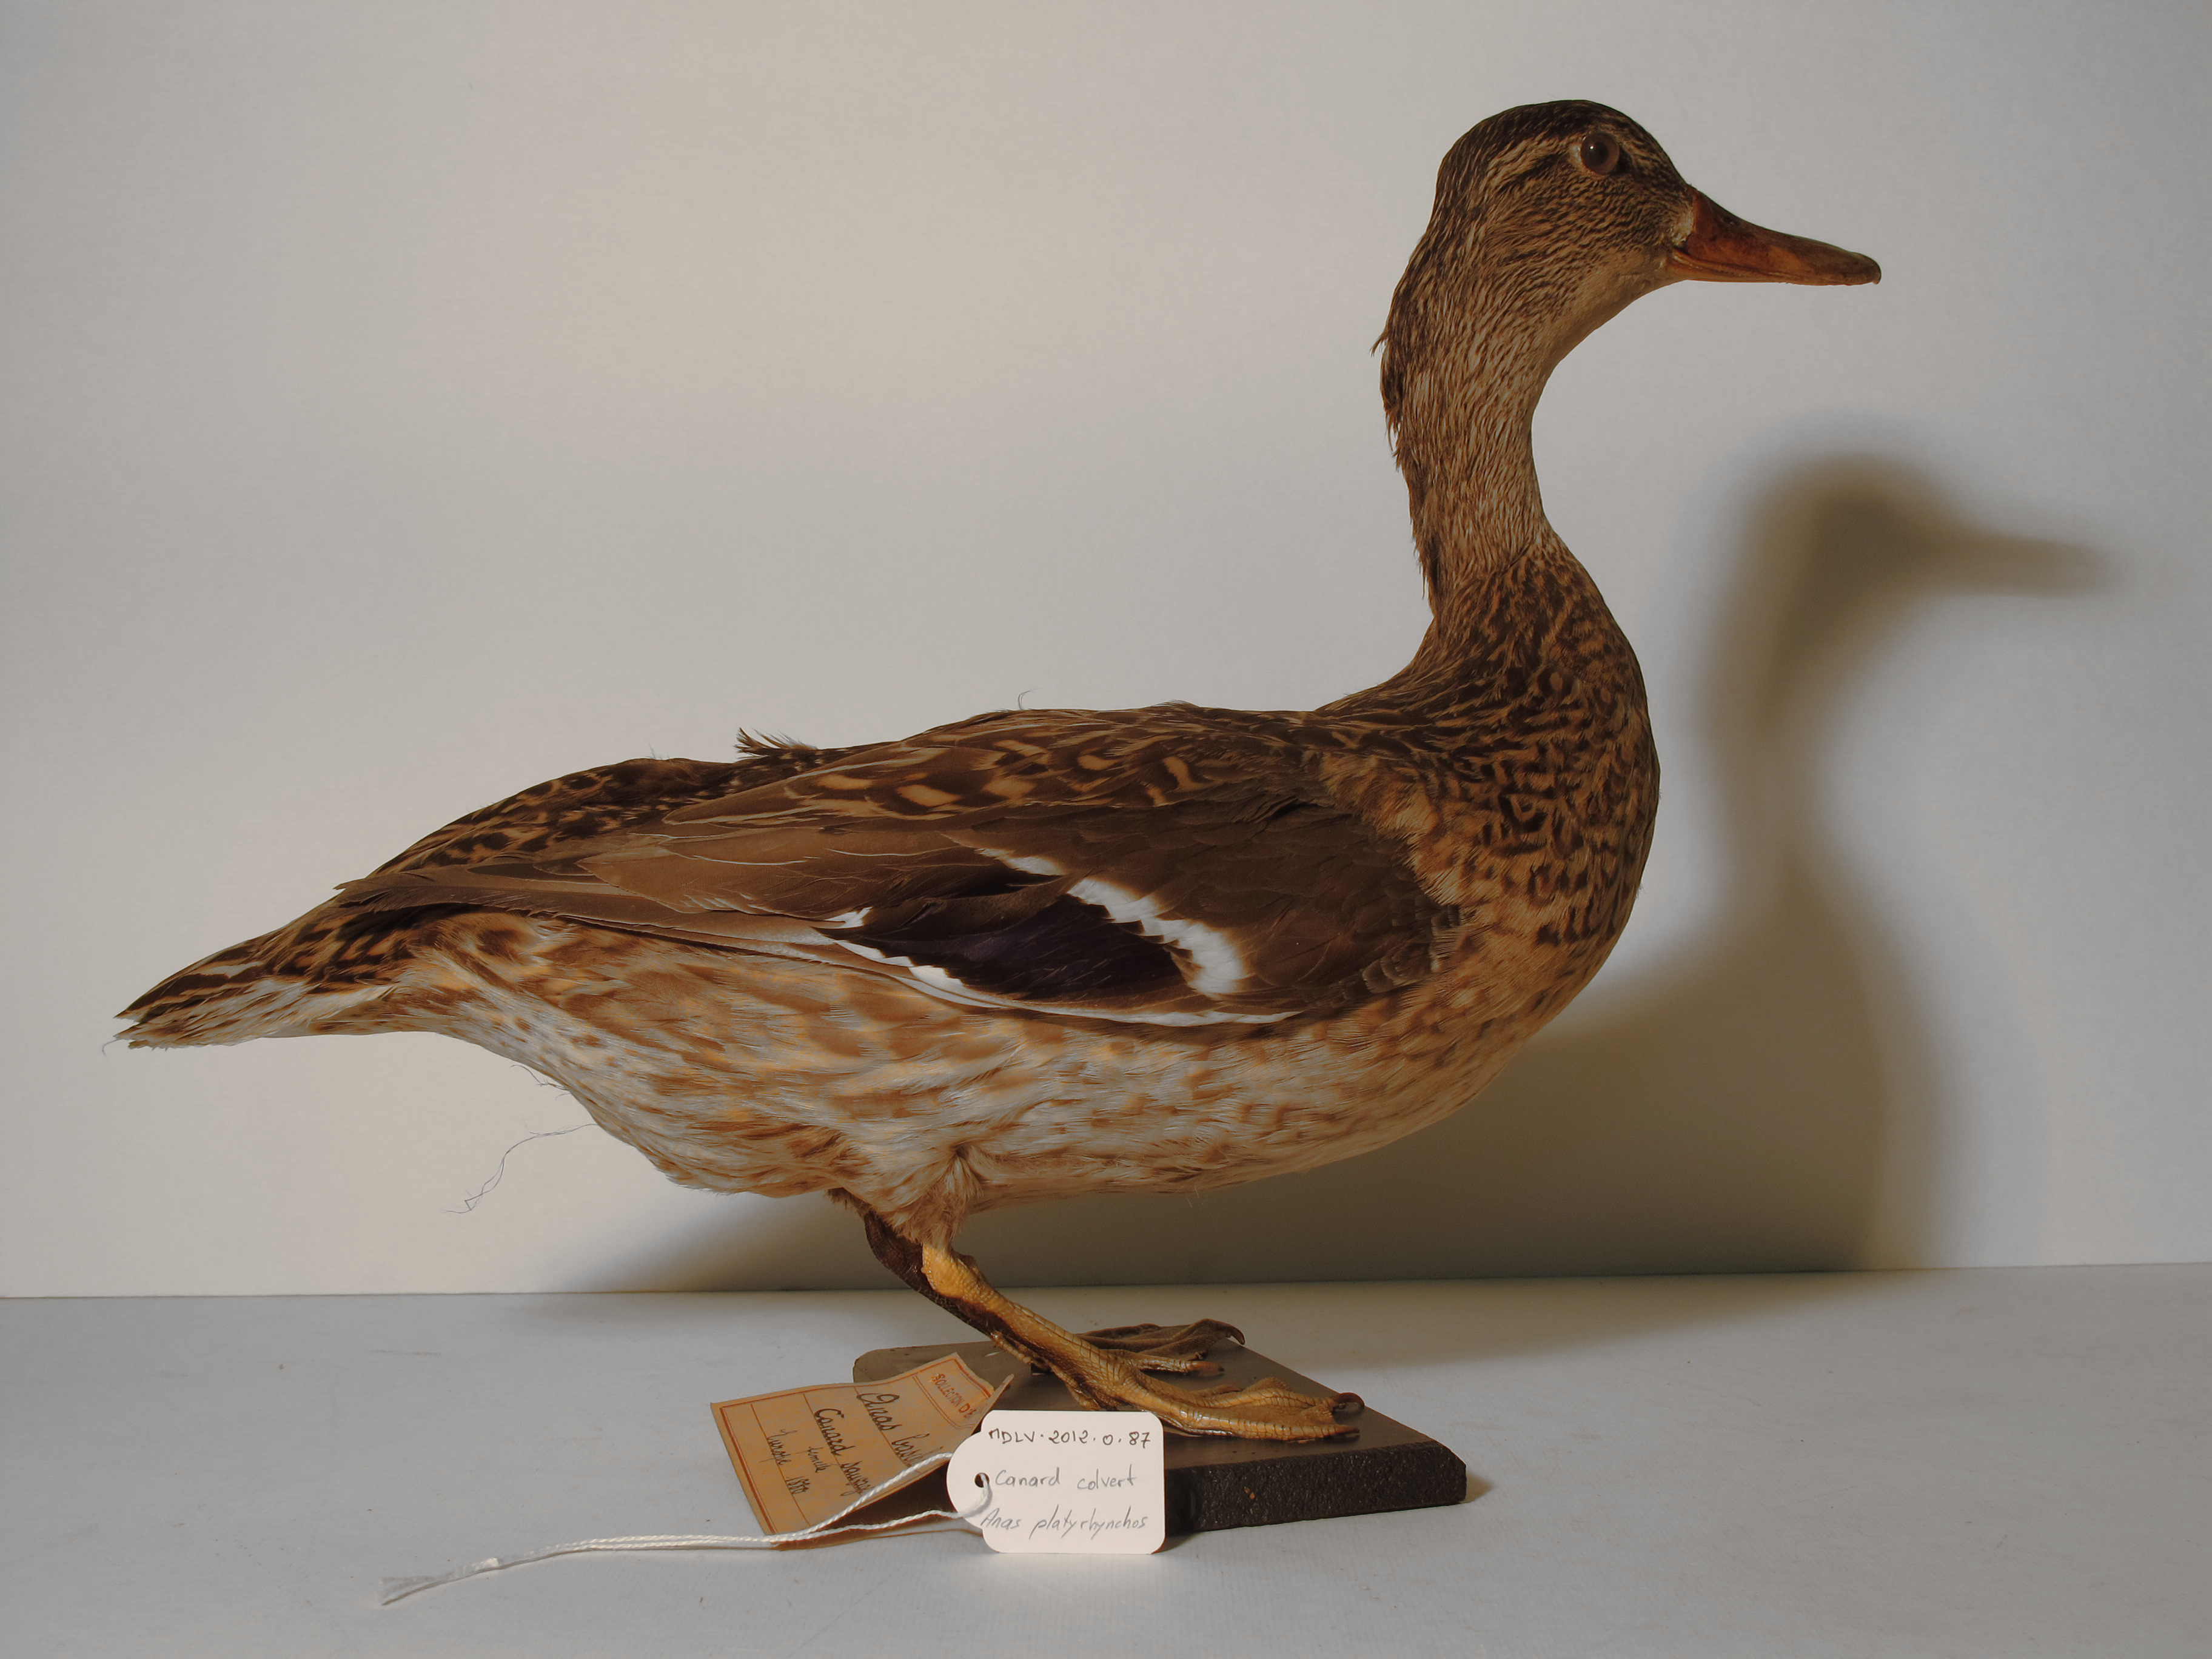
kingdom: Animalia
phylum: Chordata
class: Aves
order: Anseriformes
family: Anatidae
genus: Anas
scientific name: Anas platyrhynchos
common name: Mallard
